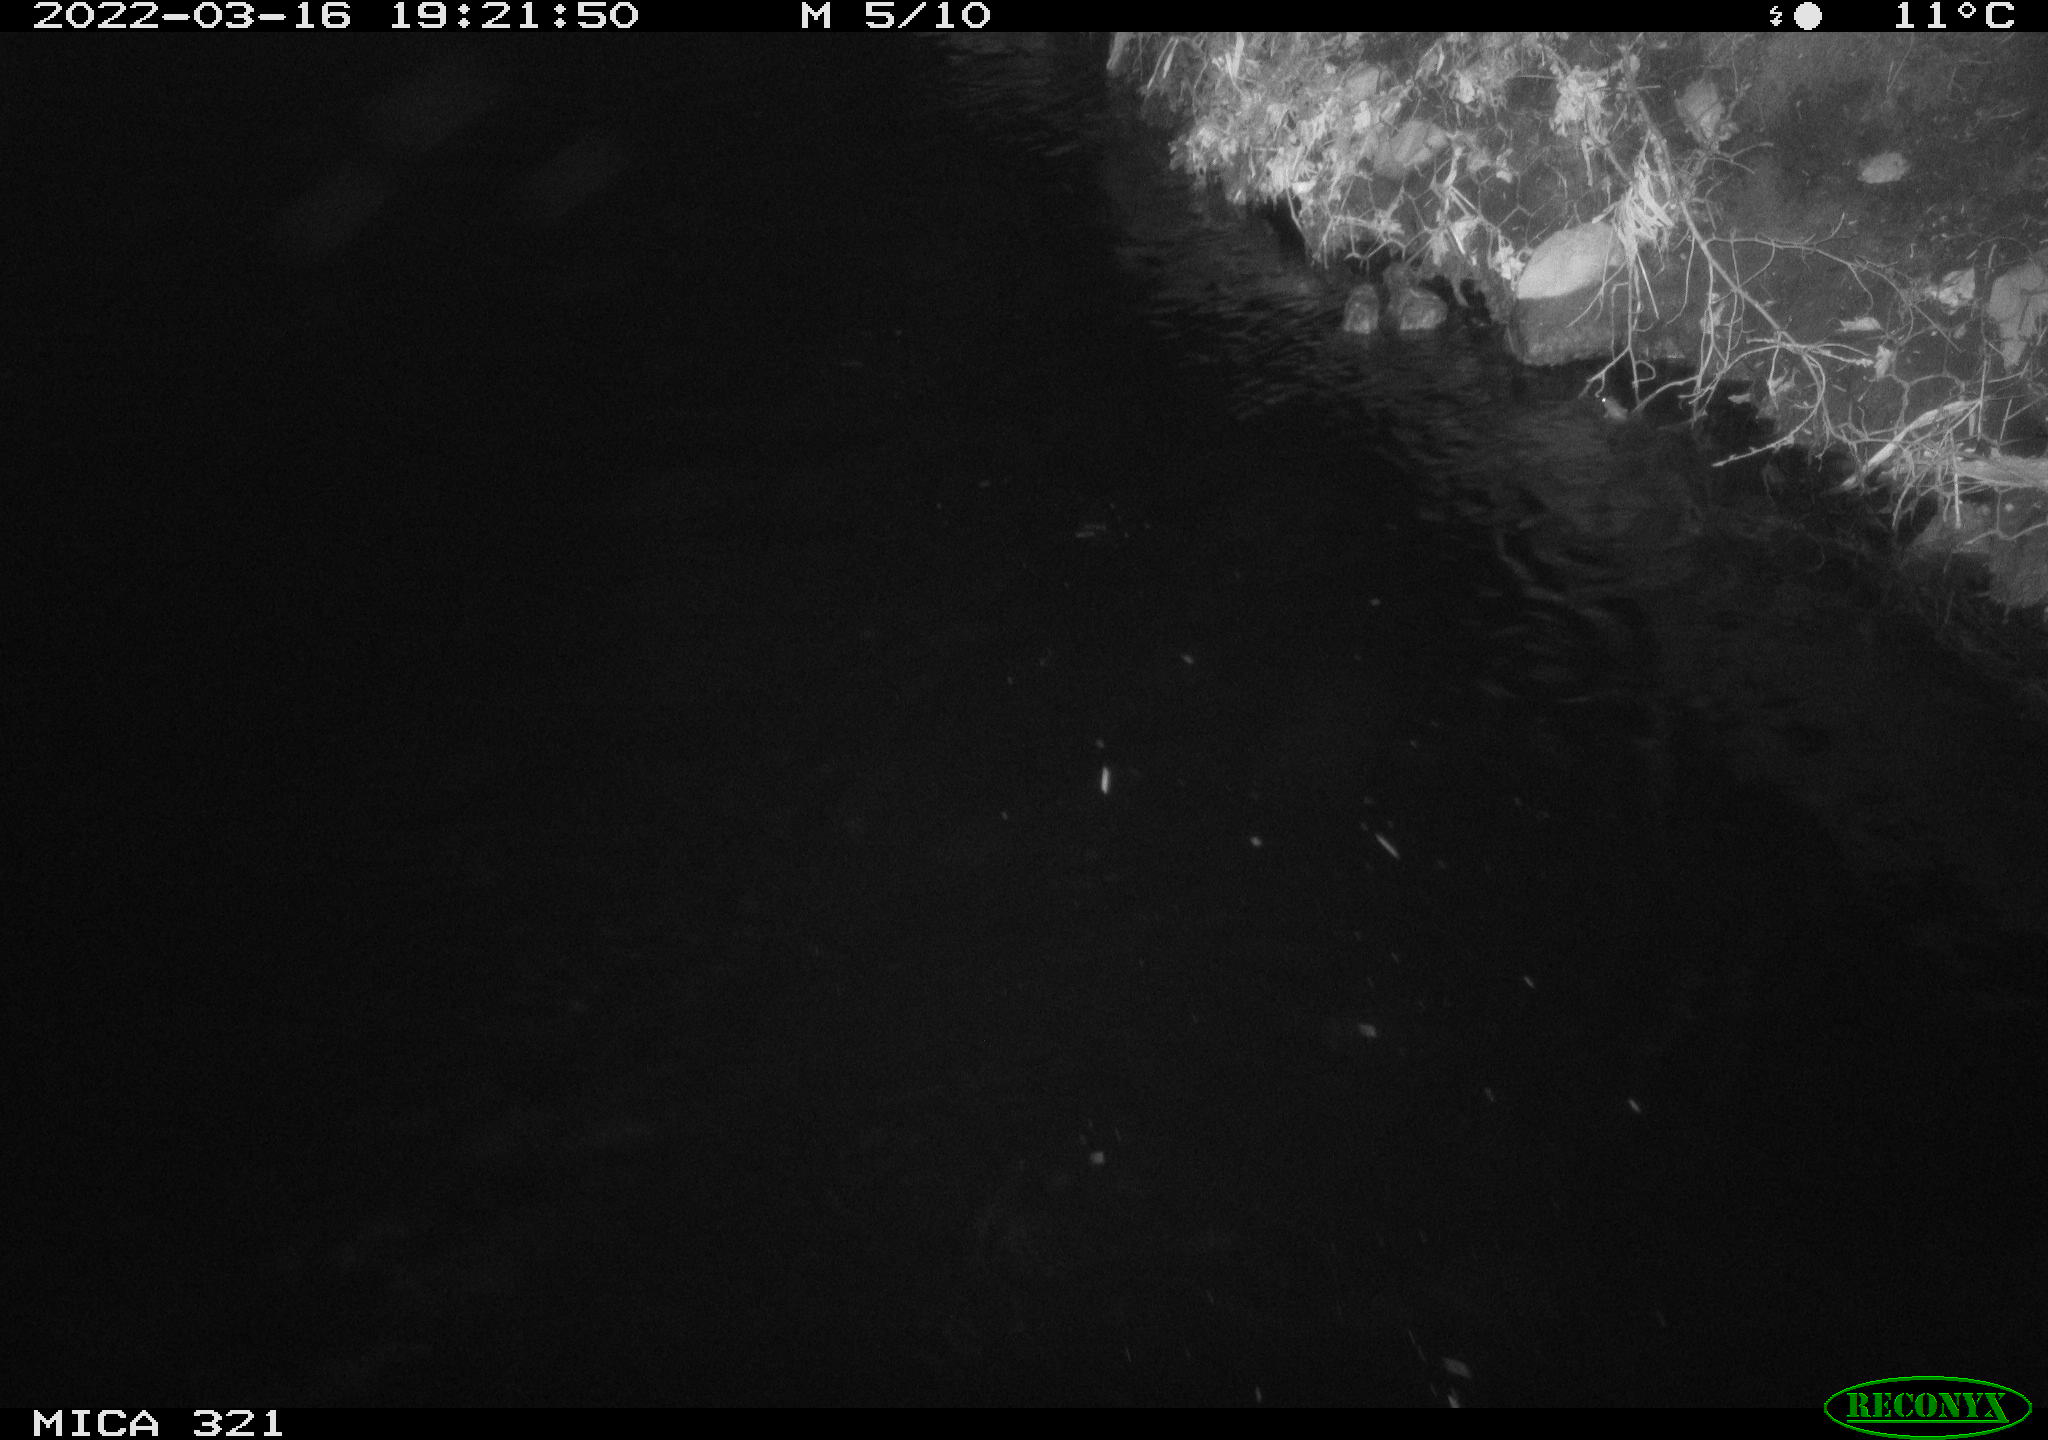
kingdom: Animalia
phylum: Chordata
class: Aves
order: Anseriformes
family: Anatidae
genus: Anas
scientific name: Anas platyrhynchos
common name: Mallard
